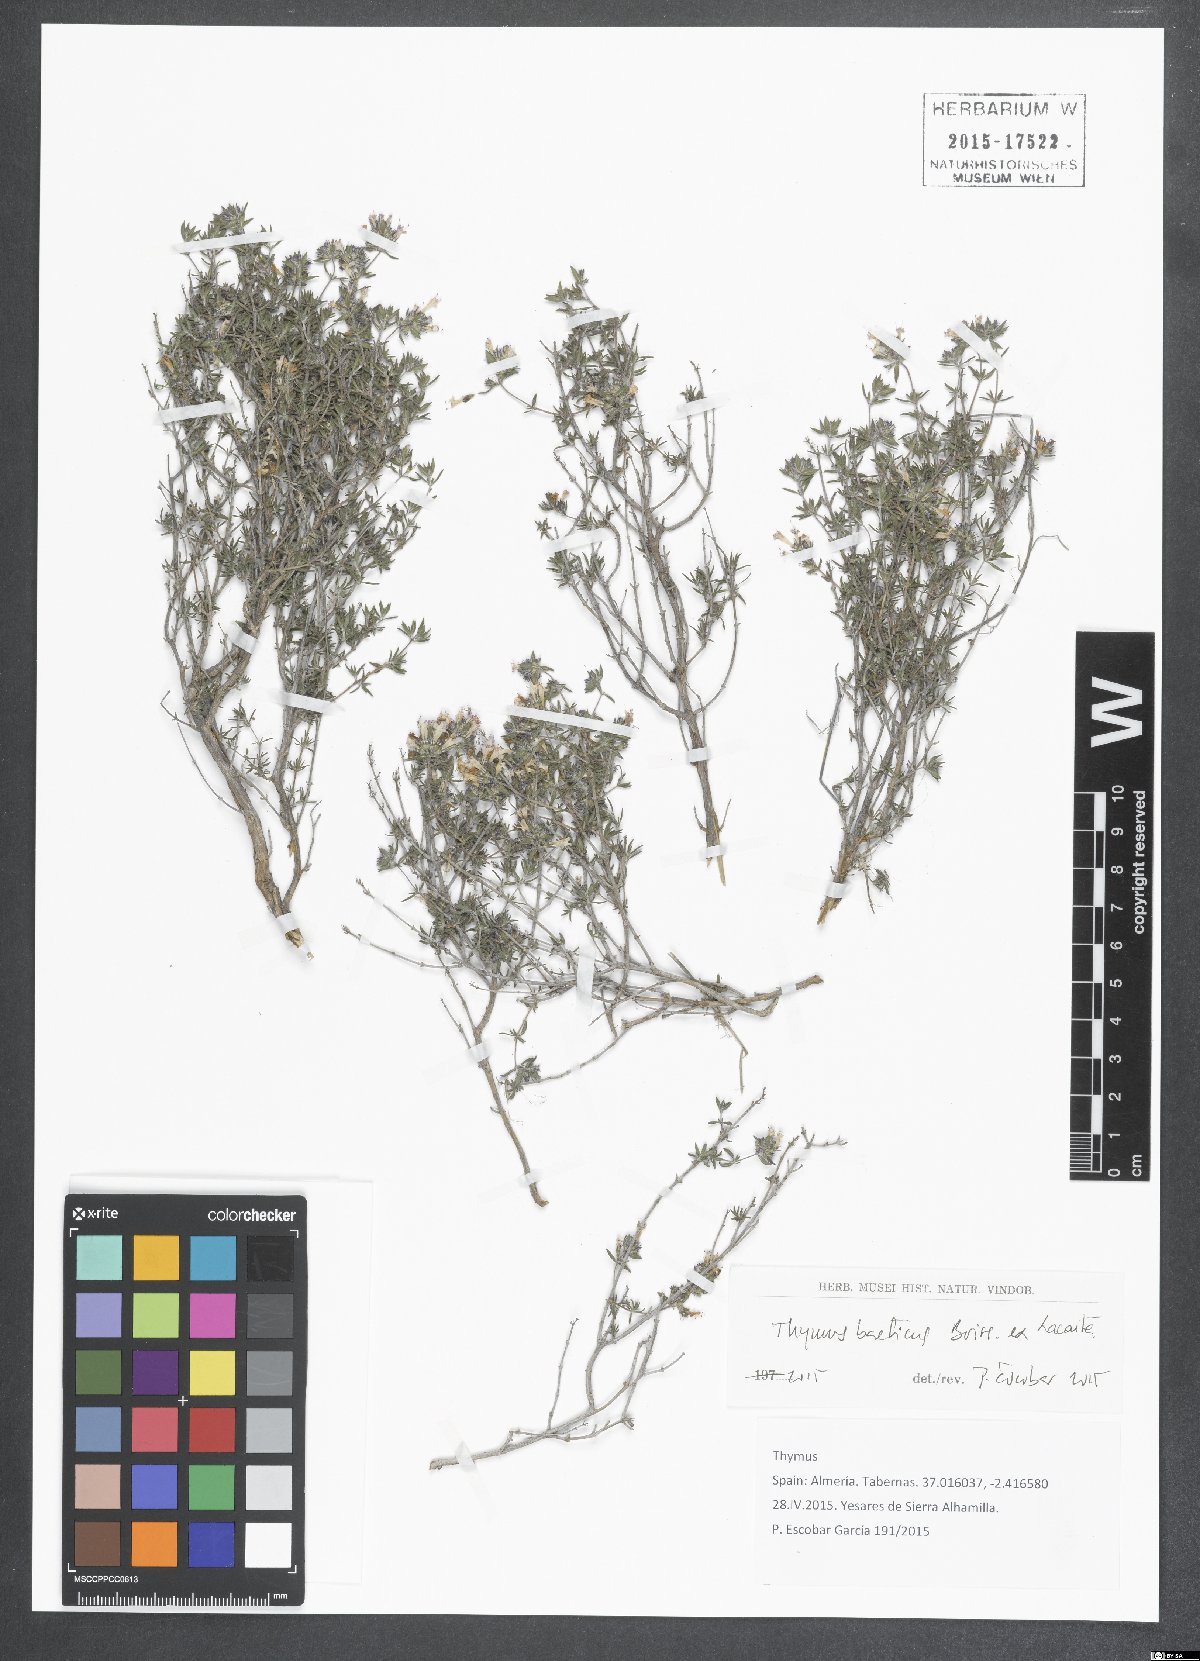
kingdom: Plantae
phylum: Tracheophyta
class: Magnoliopsida
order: Lamiales
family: Lamiaceae
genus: Thymus
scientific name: Thymus baeticus
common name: Spanish lemon thyme
